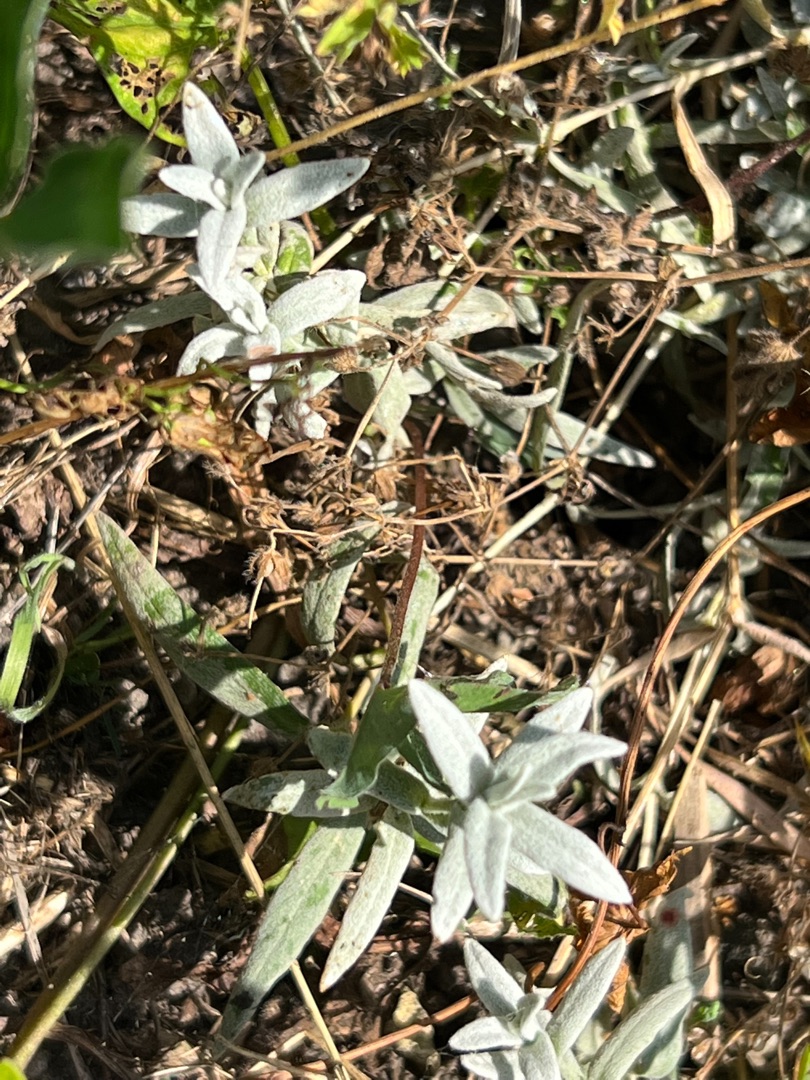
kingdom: Plantae
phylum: Tracheophyta
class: Magnoliopsida
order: Caryophyllales
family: Caryophyllaceae
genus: Cerastium
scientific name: Cerastium tomentosum
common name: Filtet hønsetarm
